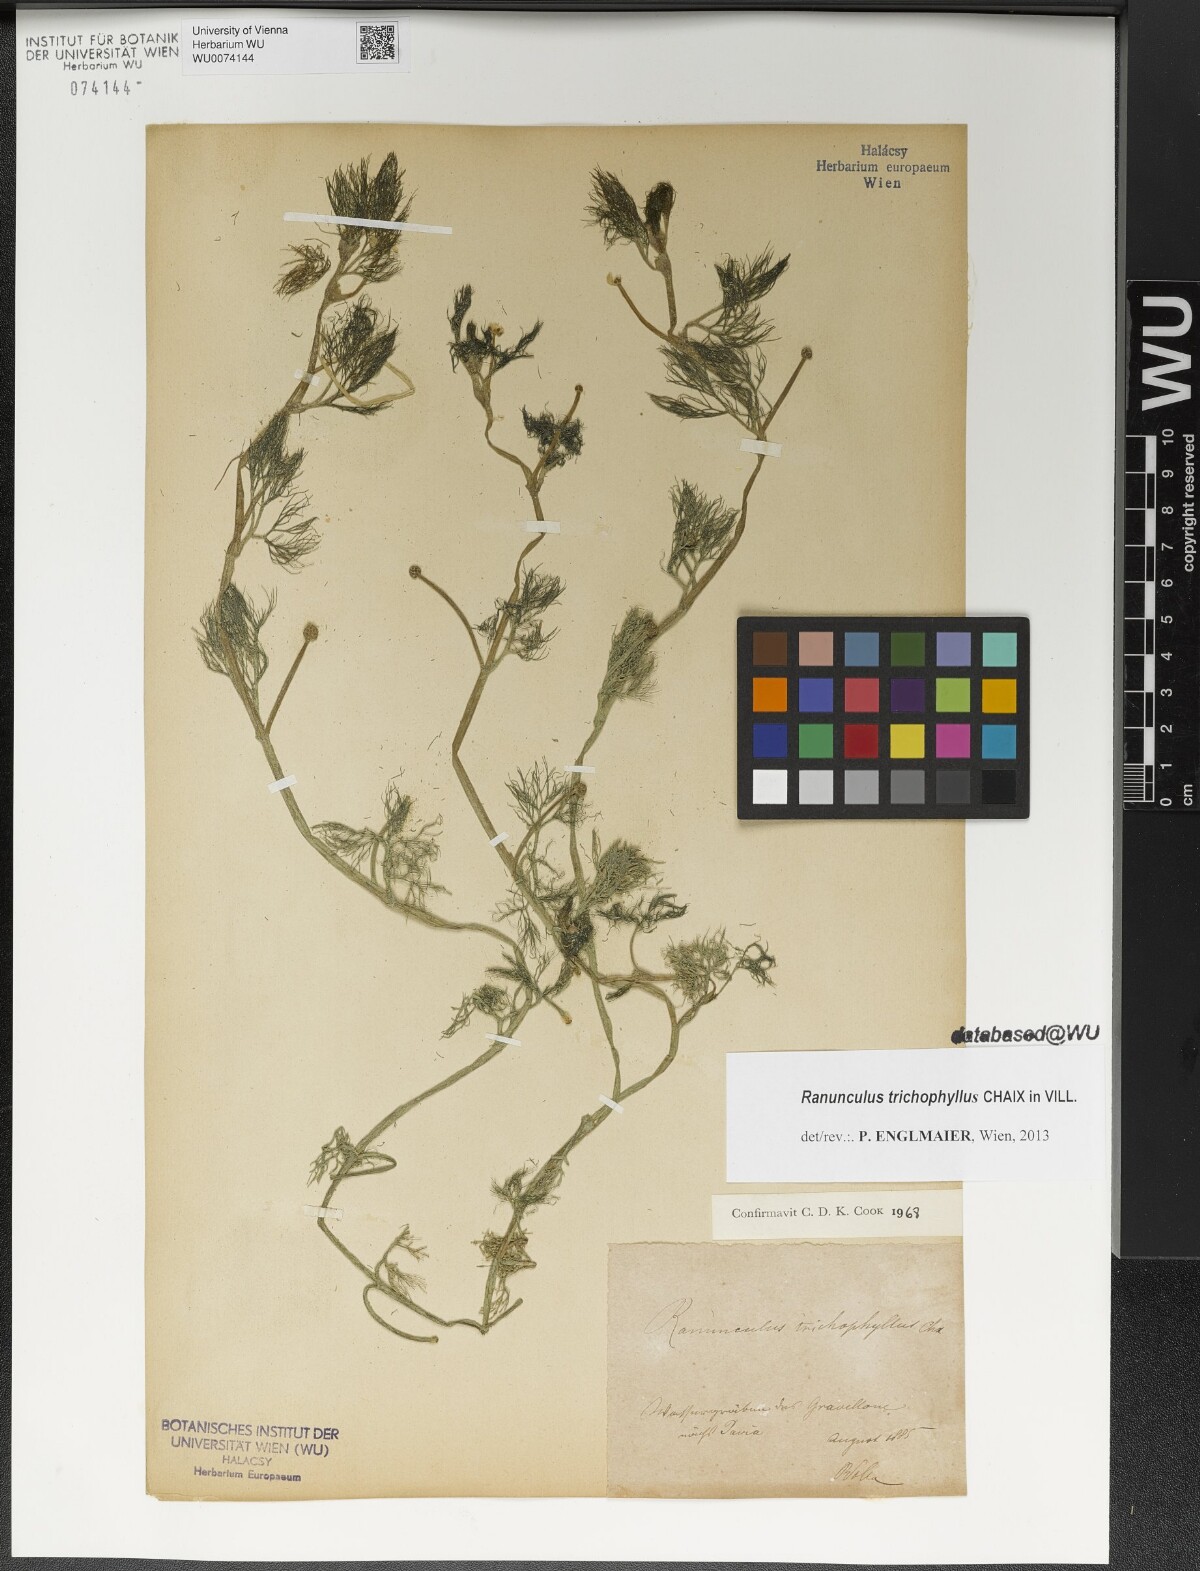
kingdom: Plantae
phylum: Tracheophyta
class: Magnoliopsida
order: Ranunculales
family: Ranunculaceae
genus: Ranunculus
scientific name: Ranunculus trichophyllus
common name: Thread-leaved water-crowfoot
